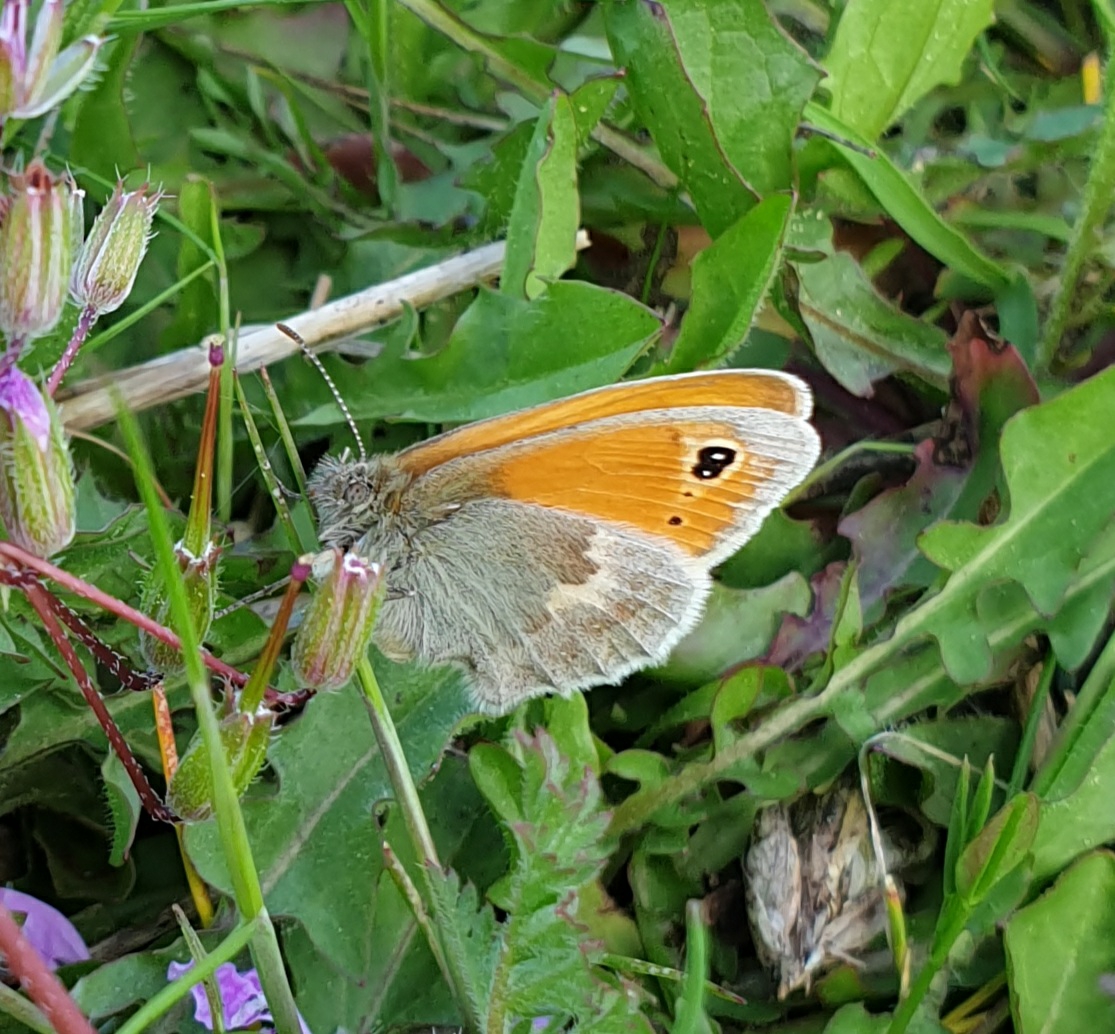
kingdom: Animalia
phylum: Arthropoda
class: Insecta
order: Lepidoptera
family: Nymphalidae
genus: Coenonympha
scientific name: Coenonympha pamphilus
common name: Okkergul randøje
